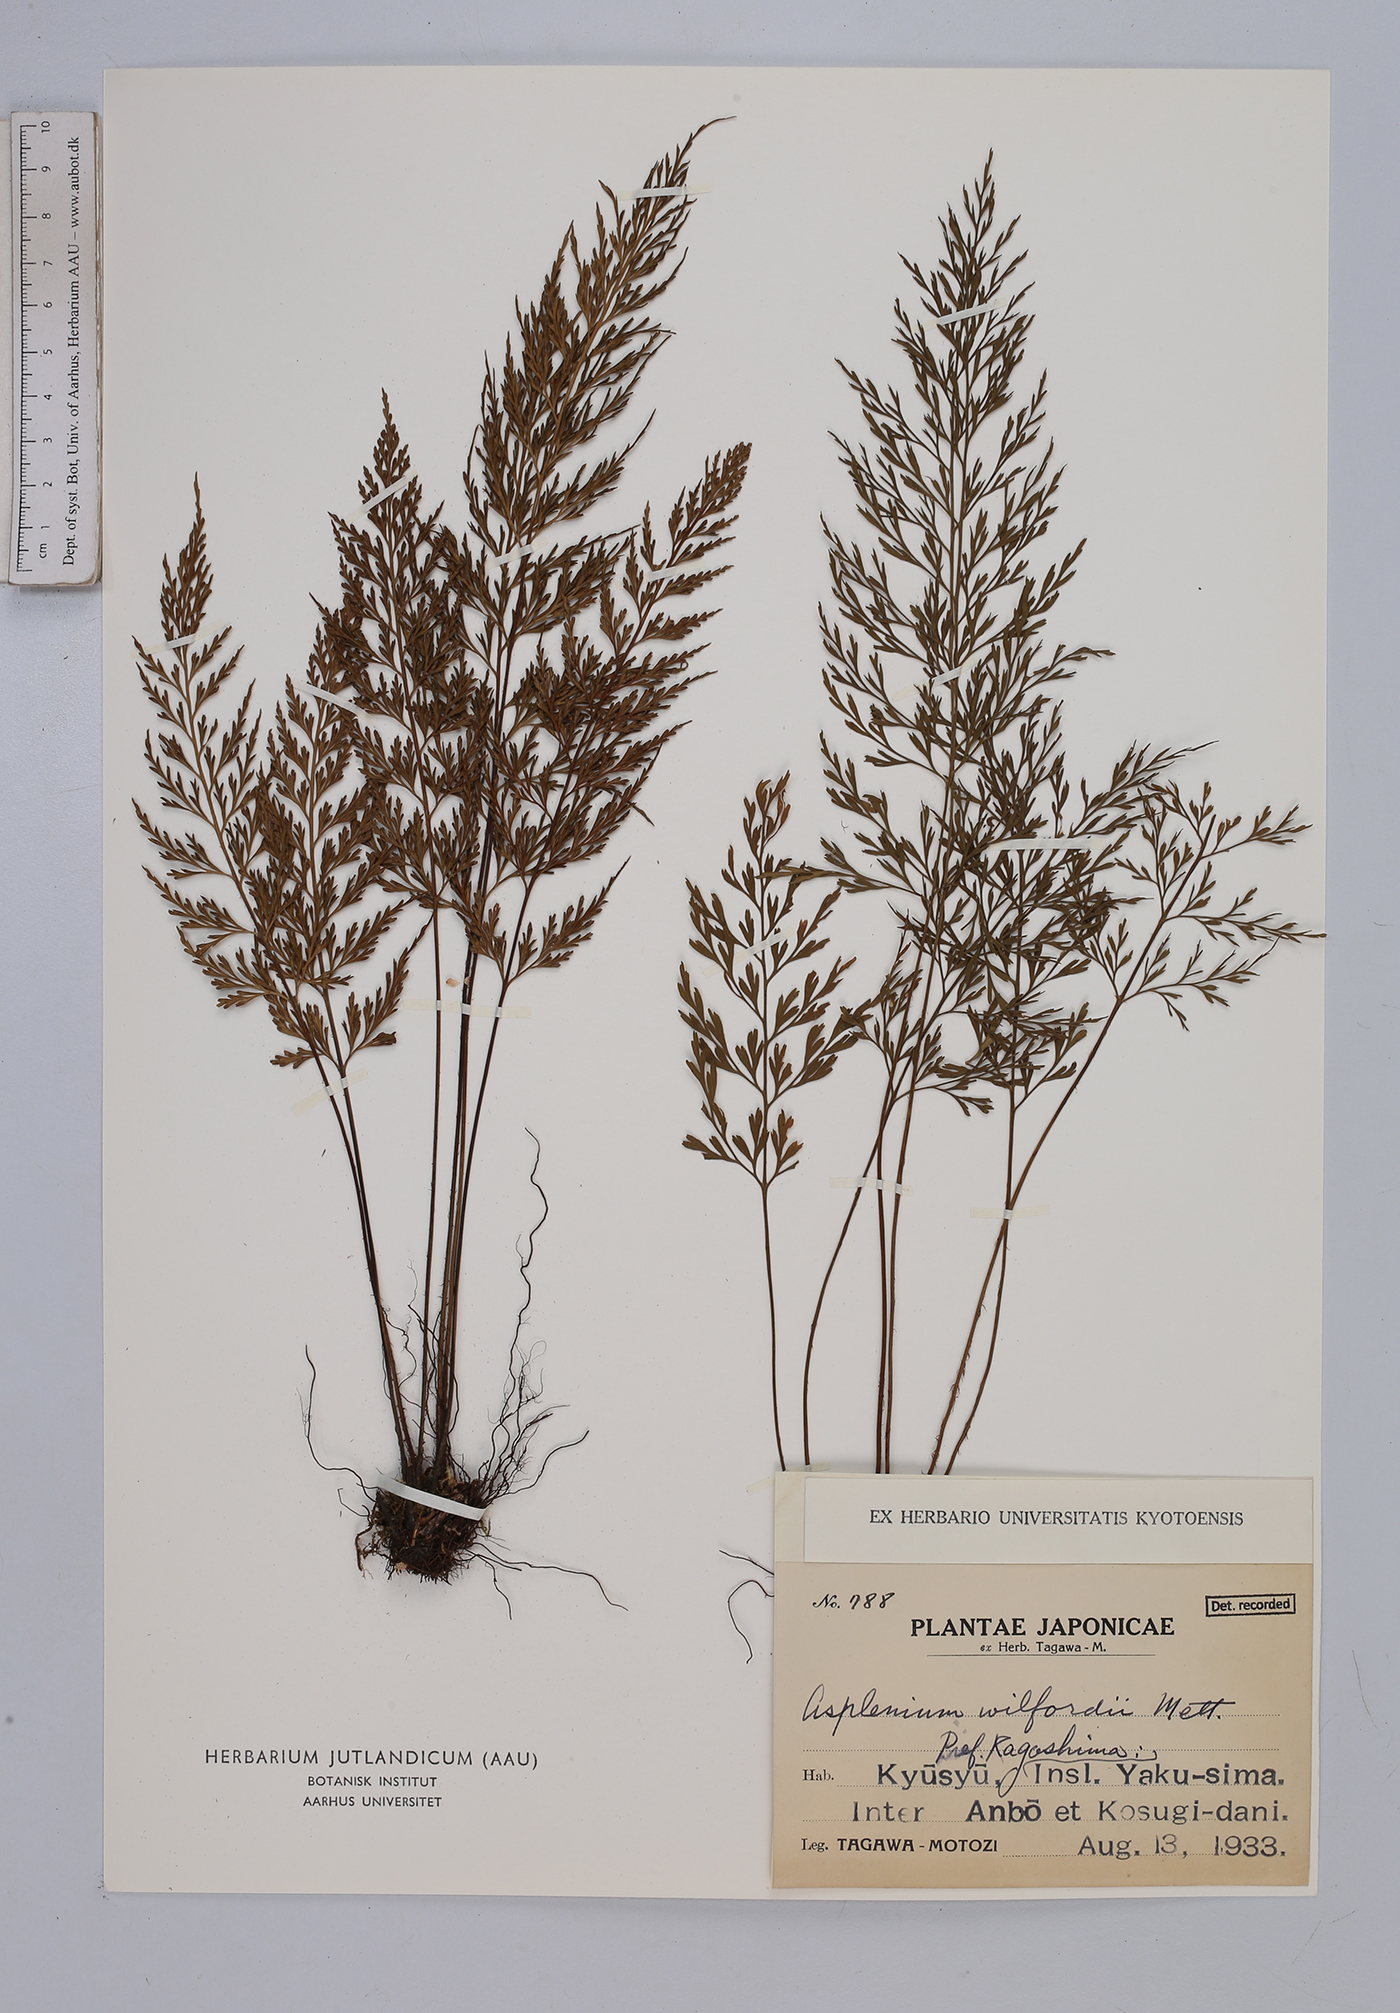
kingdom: Plantae
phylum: Tracheophyta
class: Polypodiopsida
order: Polypodiales
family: Aspleniaceae
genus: Asplenium
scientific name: Asplenium wilfordii
